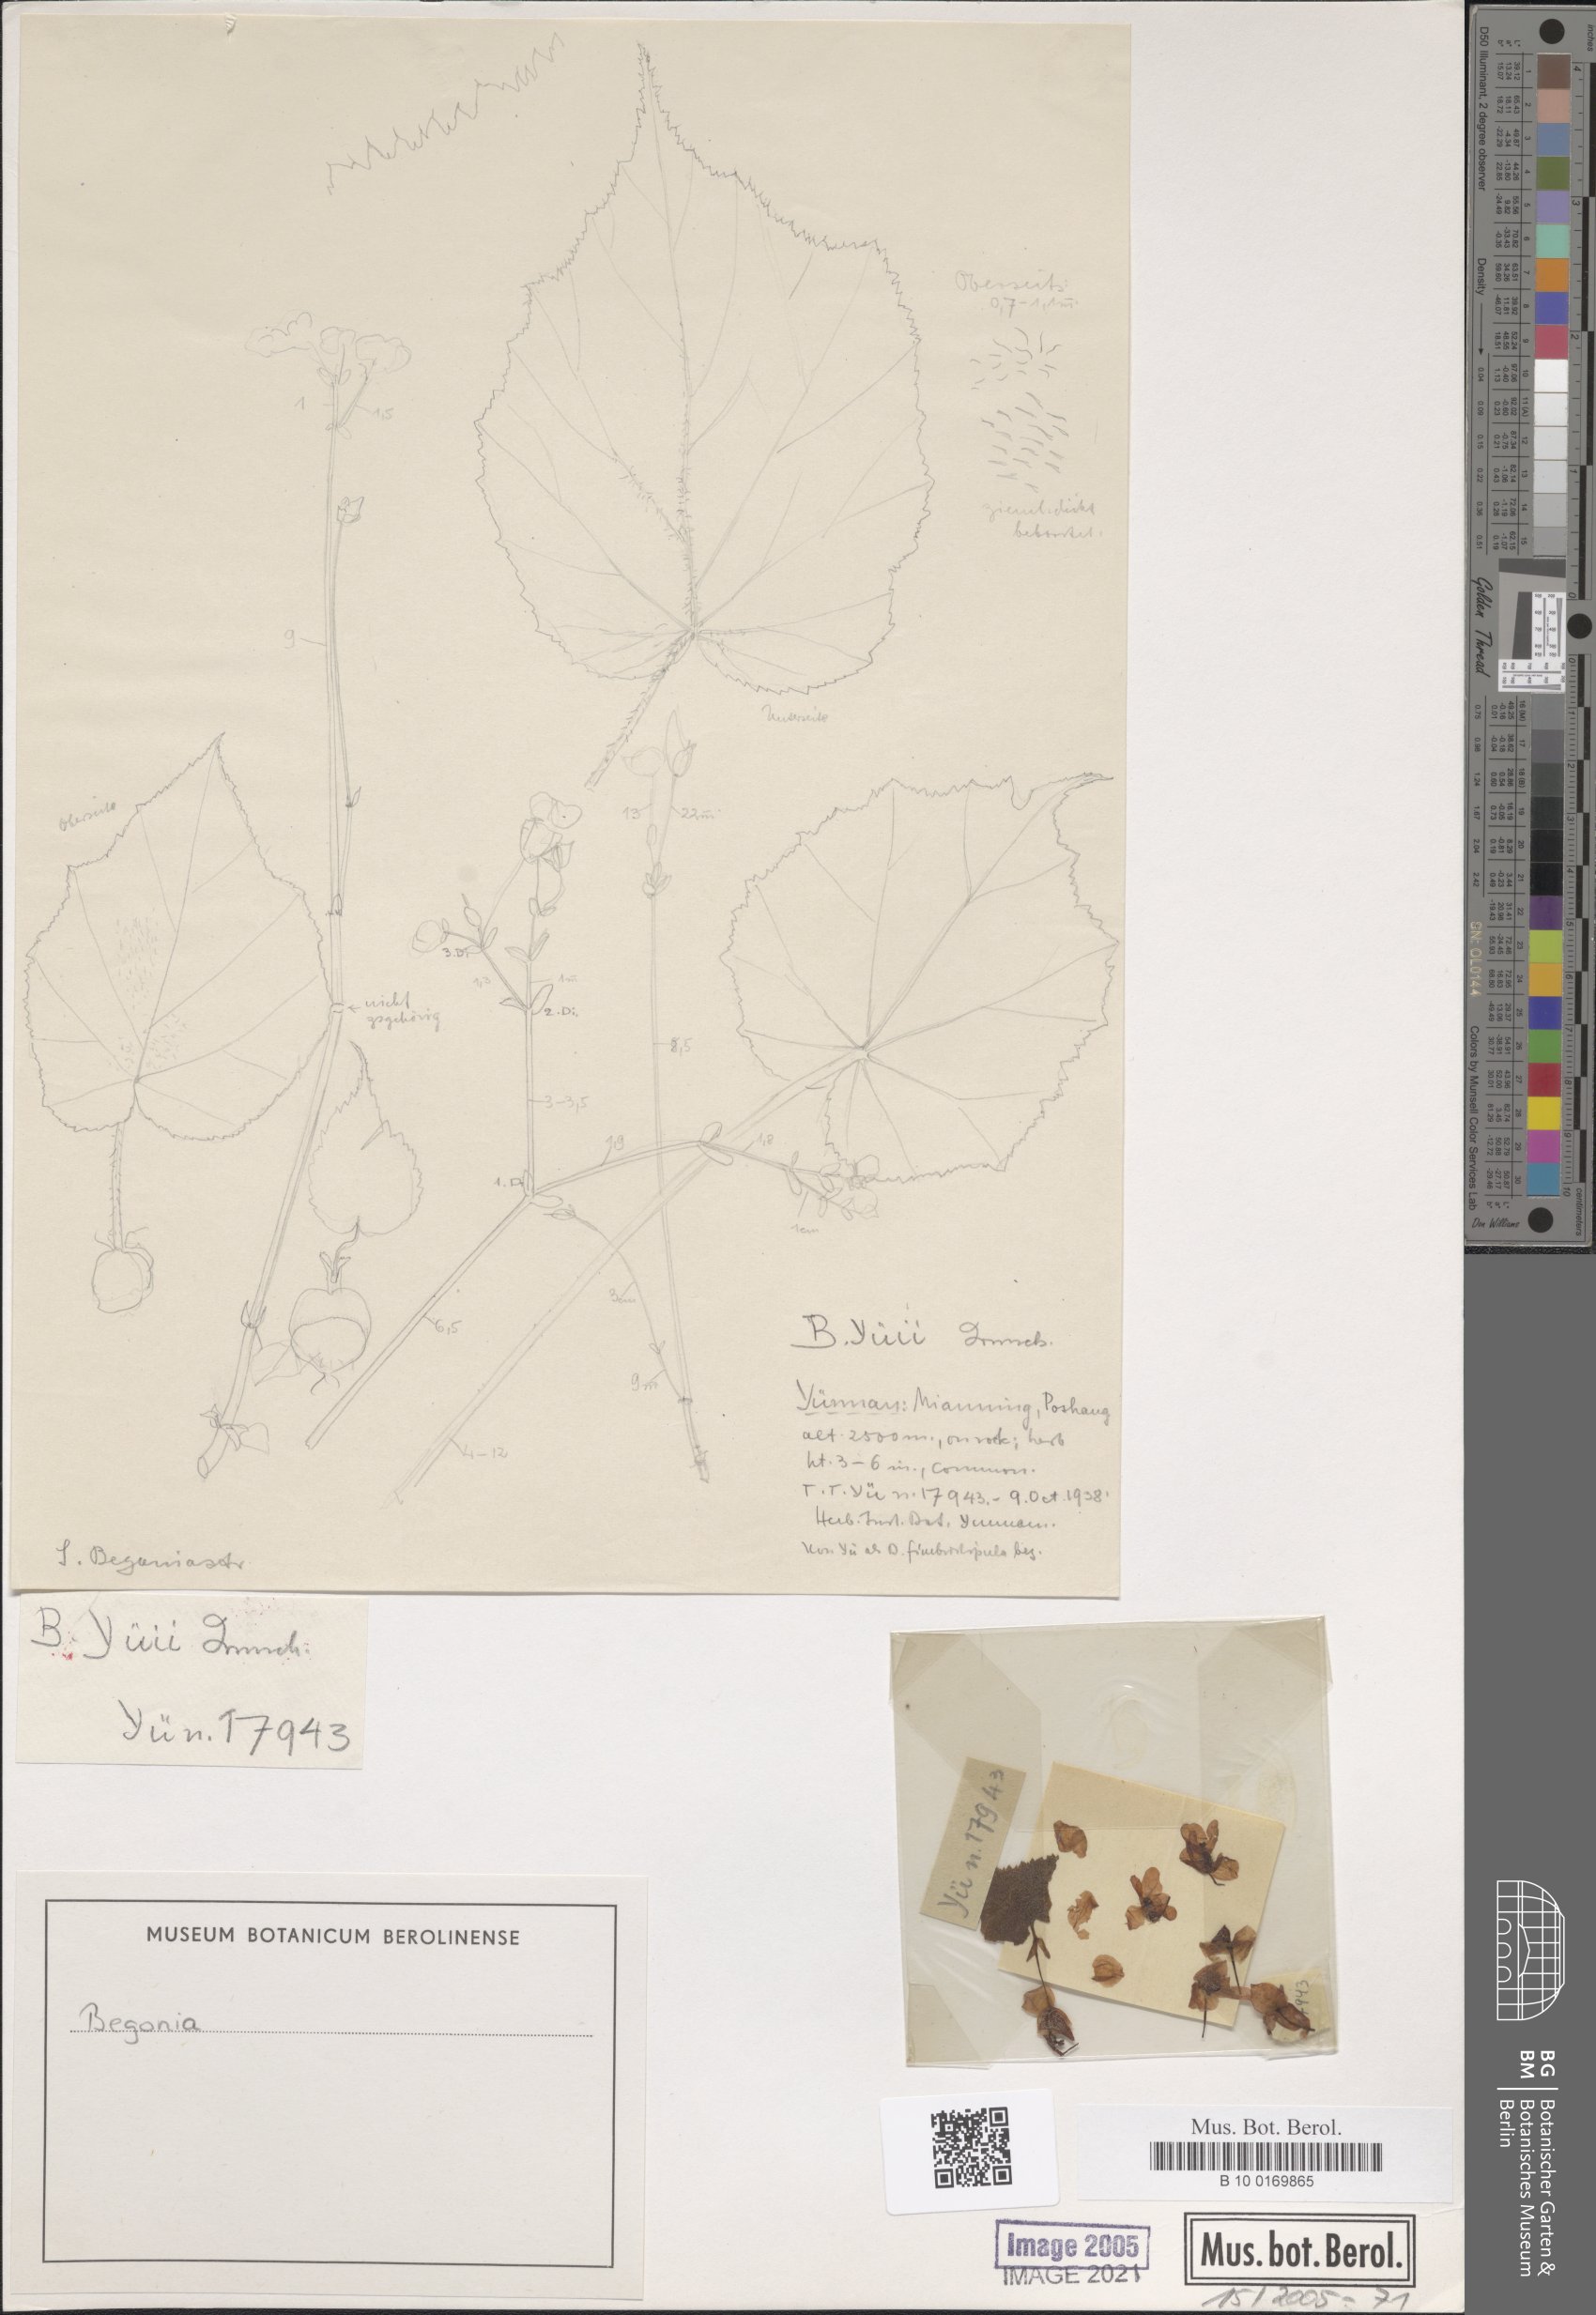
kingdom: Plantae
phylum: Tracheophyta
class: Magnoliopsida
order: Cucurbitales
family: Begoniaceae
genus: Begonia
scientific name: Begonia yui
